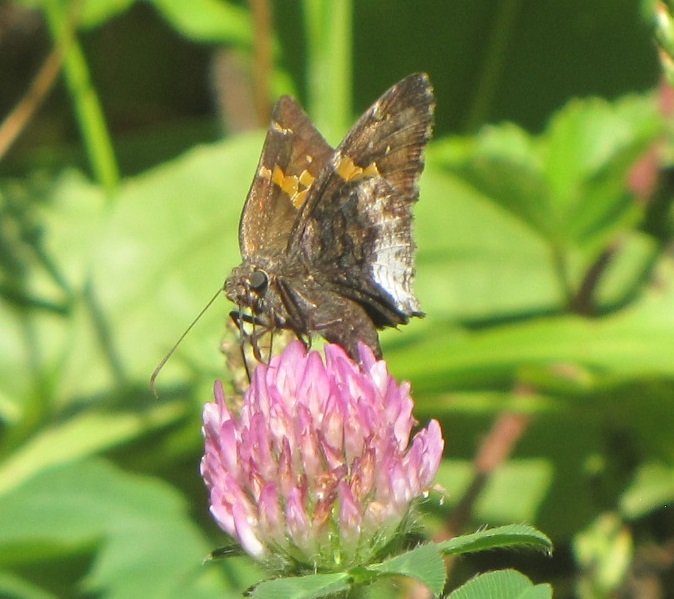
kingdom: Animalia
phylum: Arthropoda
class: Insecta
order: Lepidoptera
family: Hesperiidae
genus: Achalarus
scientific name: Achalarus lyciades
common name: Hoary Edge
